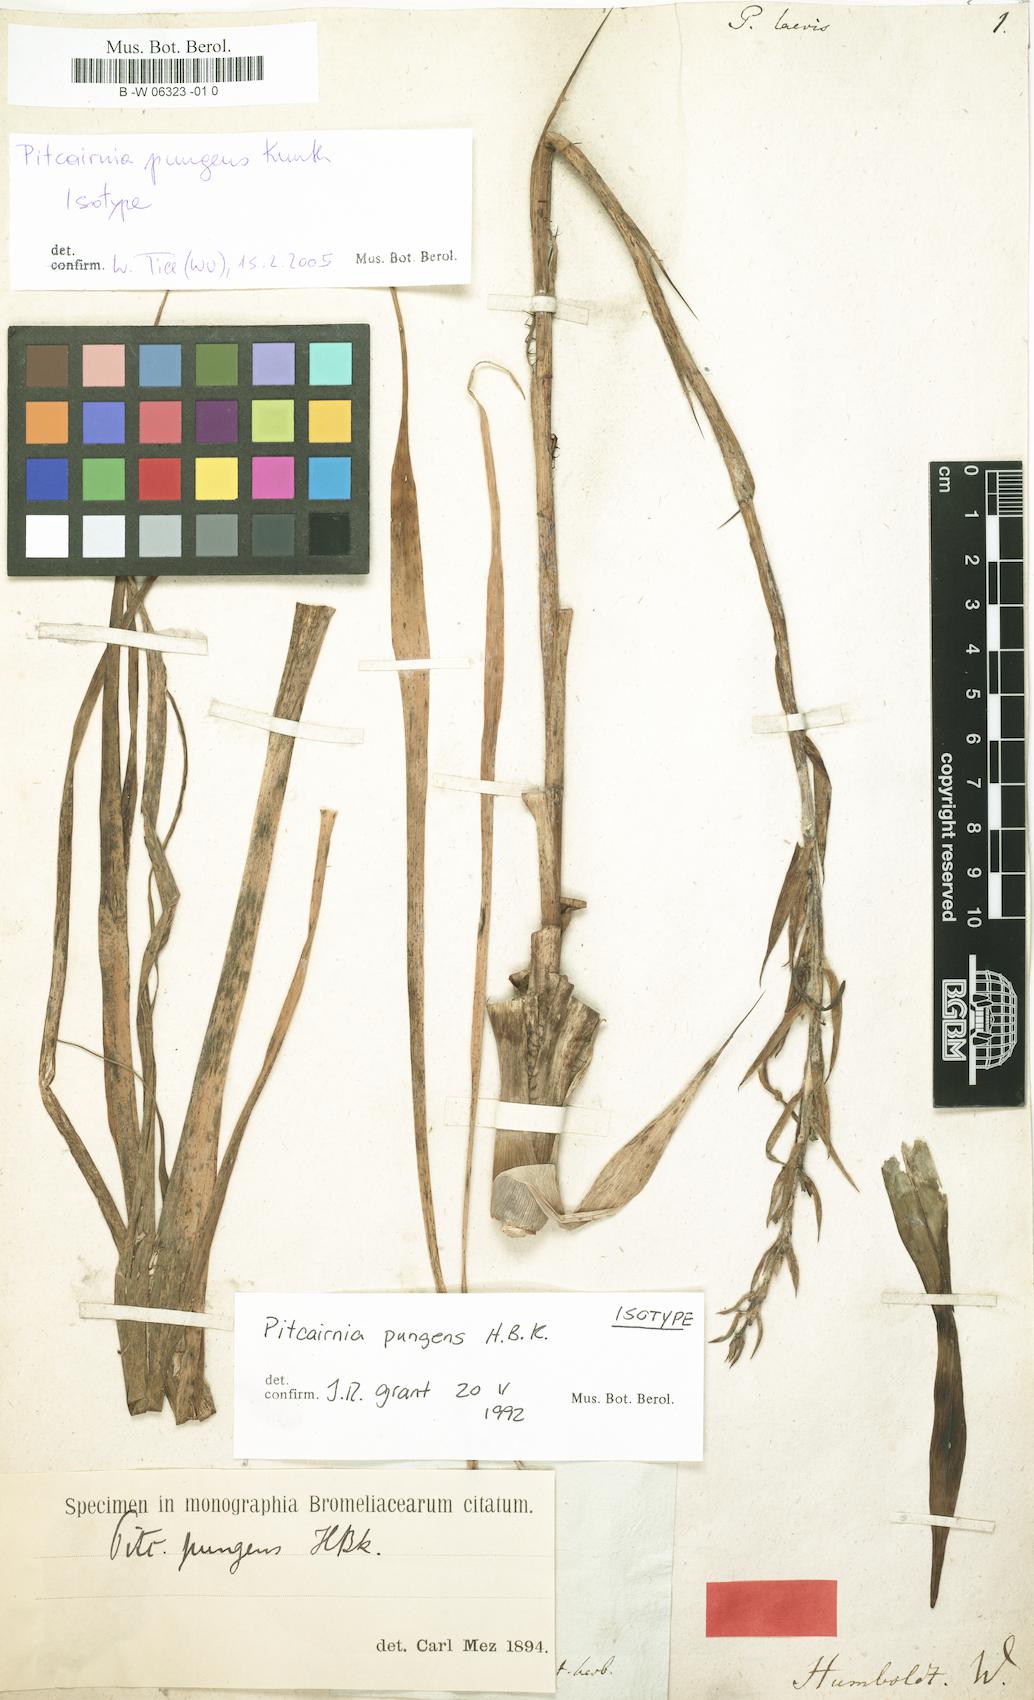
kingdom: Plantae
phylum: Tracheophyta
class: Liliopsida
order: Poales
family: Bromeliaceae
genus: Pitcairnia
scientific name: Pitcairnia pungens
